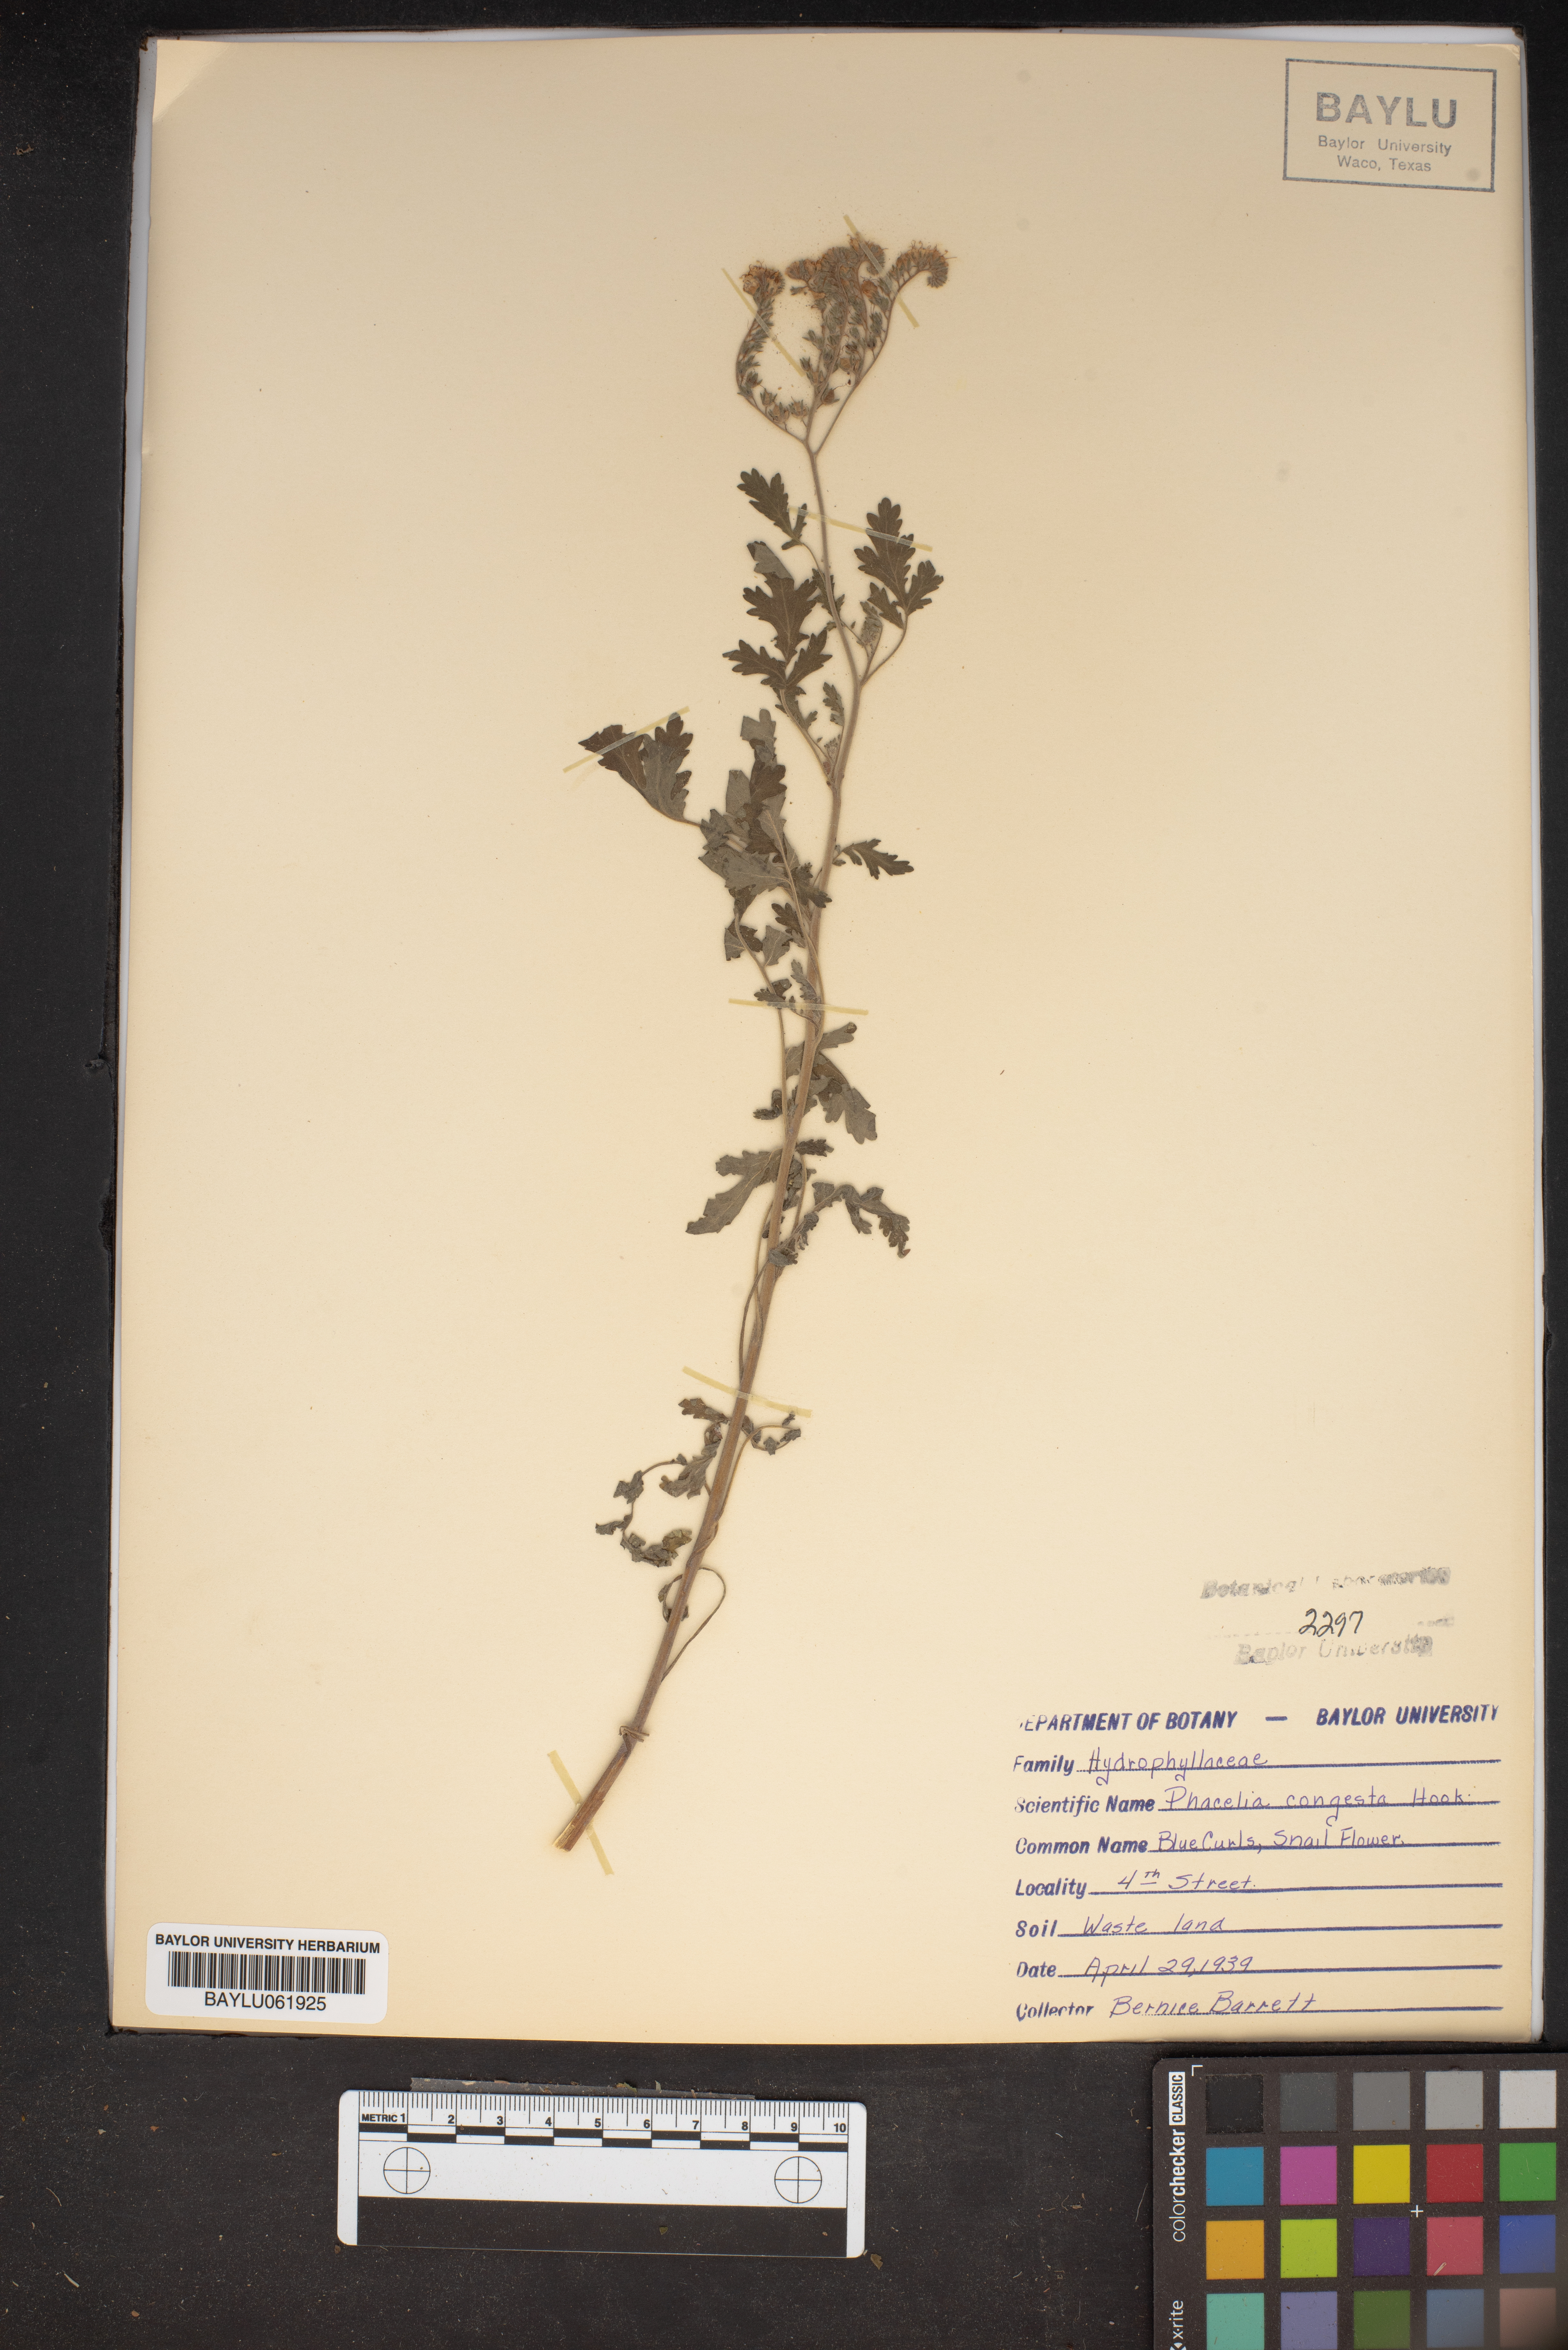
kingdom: Plantae
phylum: Tracheophyta
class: Magnoliopsida
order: Boraginales
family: Hydrophyllaceae
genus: Phacelia
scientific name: Phacelia congesta
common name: Blue curls
